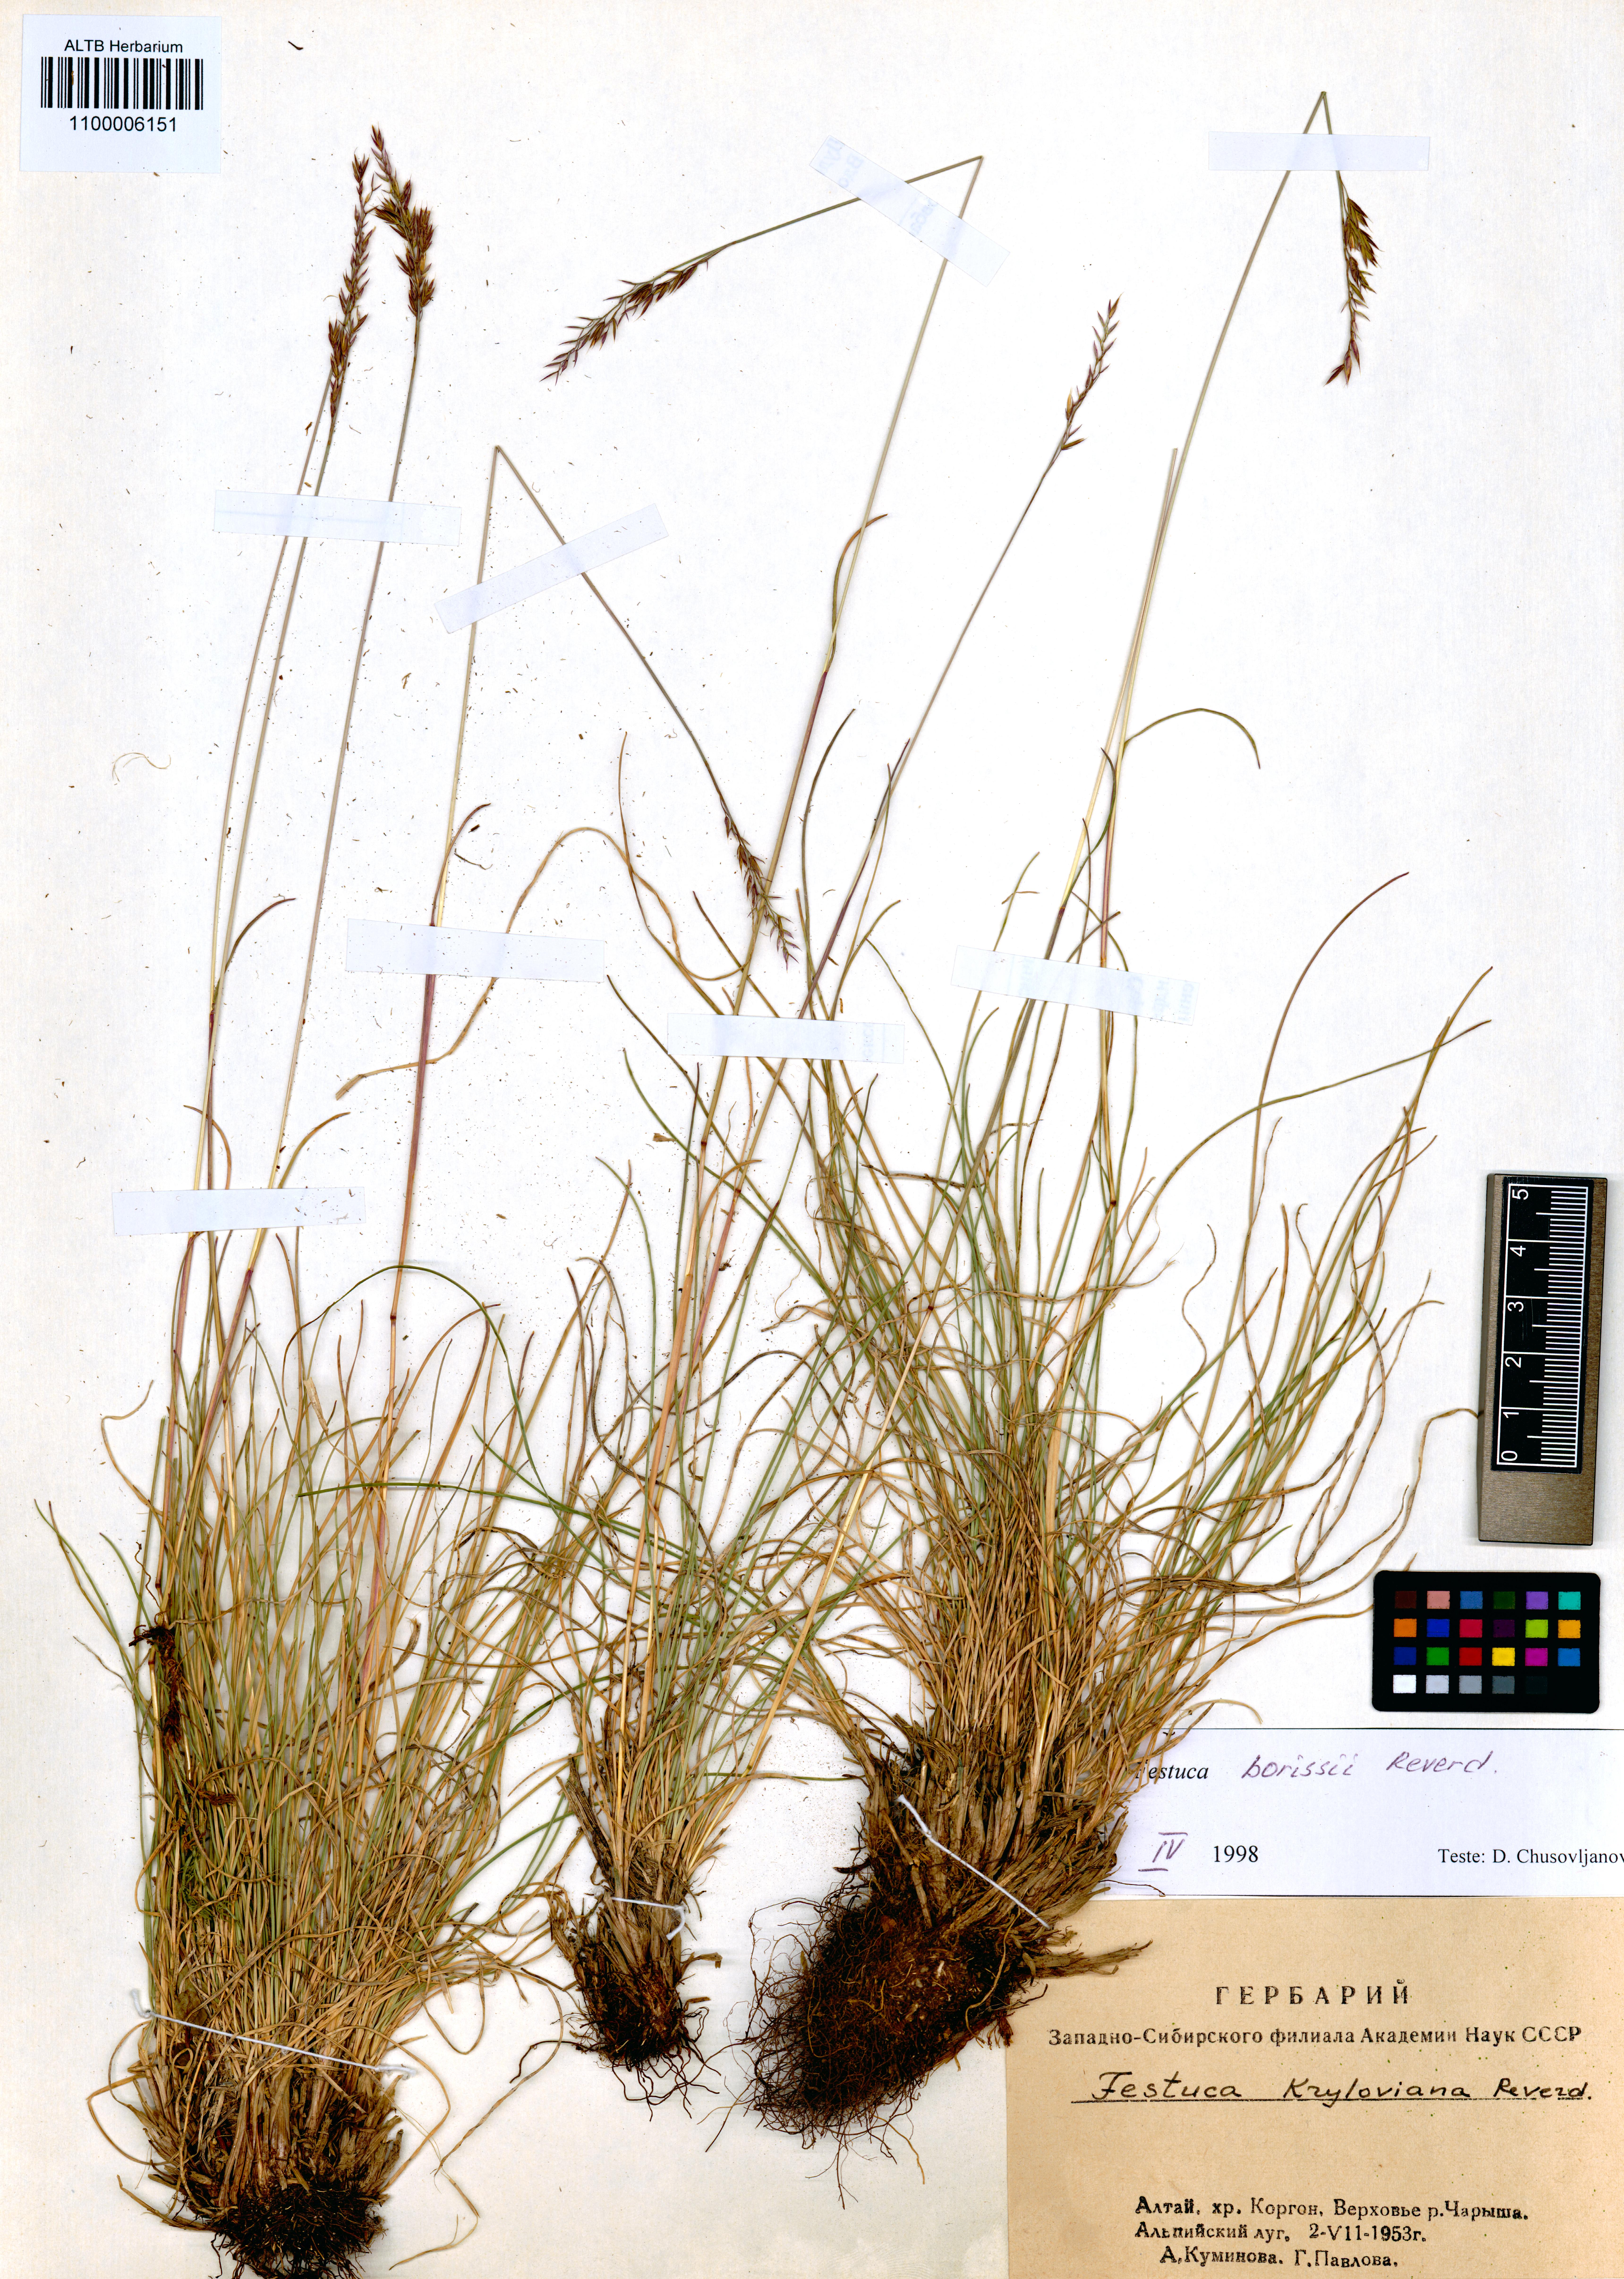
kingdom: Plantae
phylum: Tracheophyta
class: Liliopsida
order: Poales
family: Poaceae
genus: Festuca
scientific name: Festuca borissii
